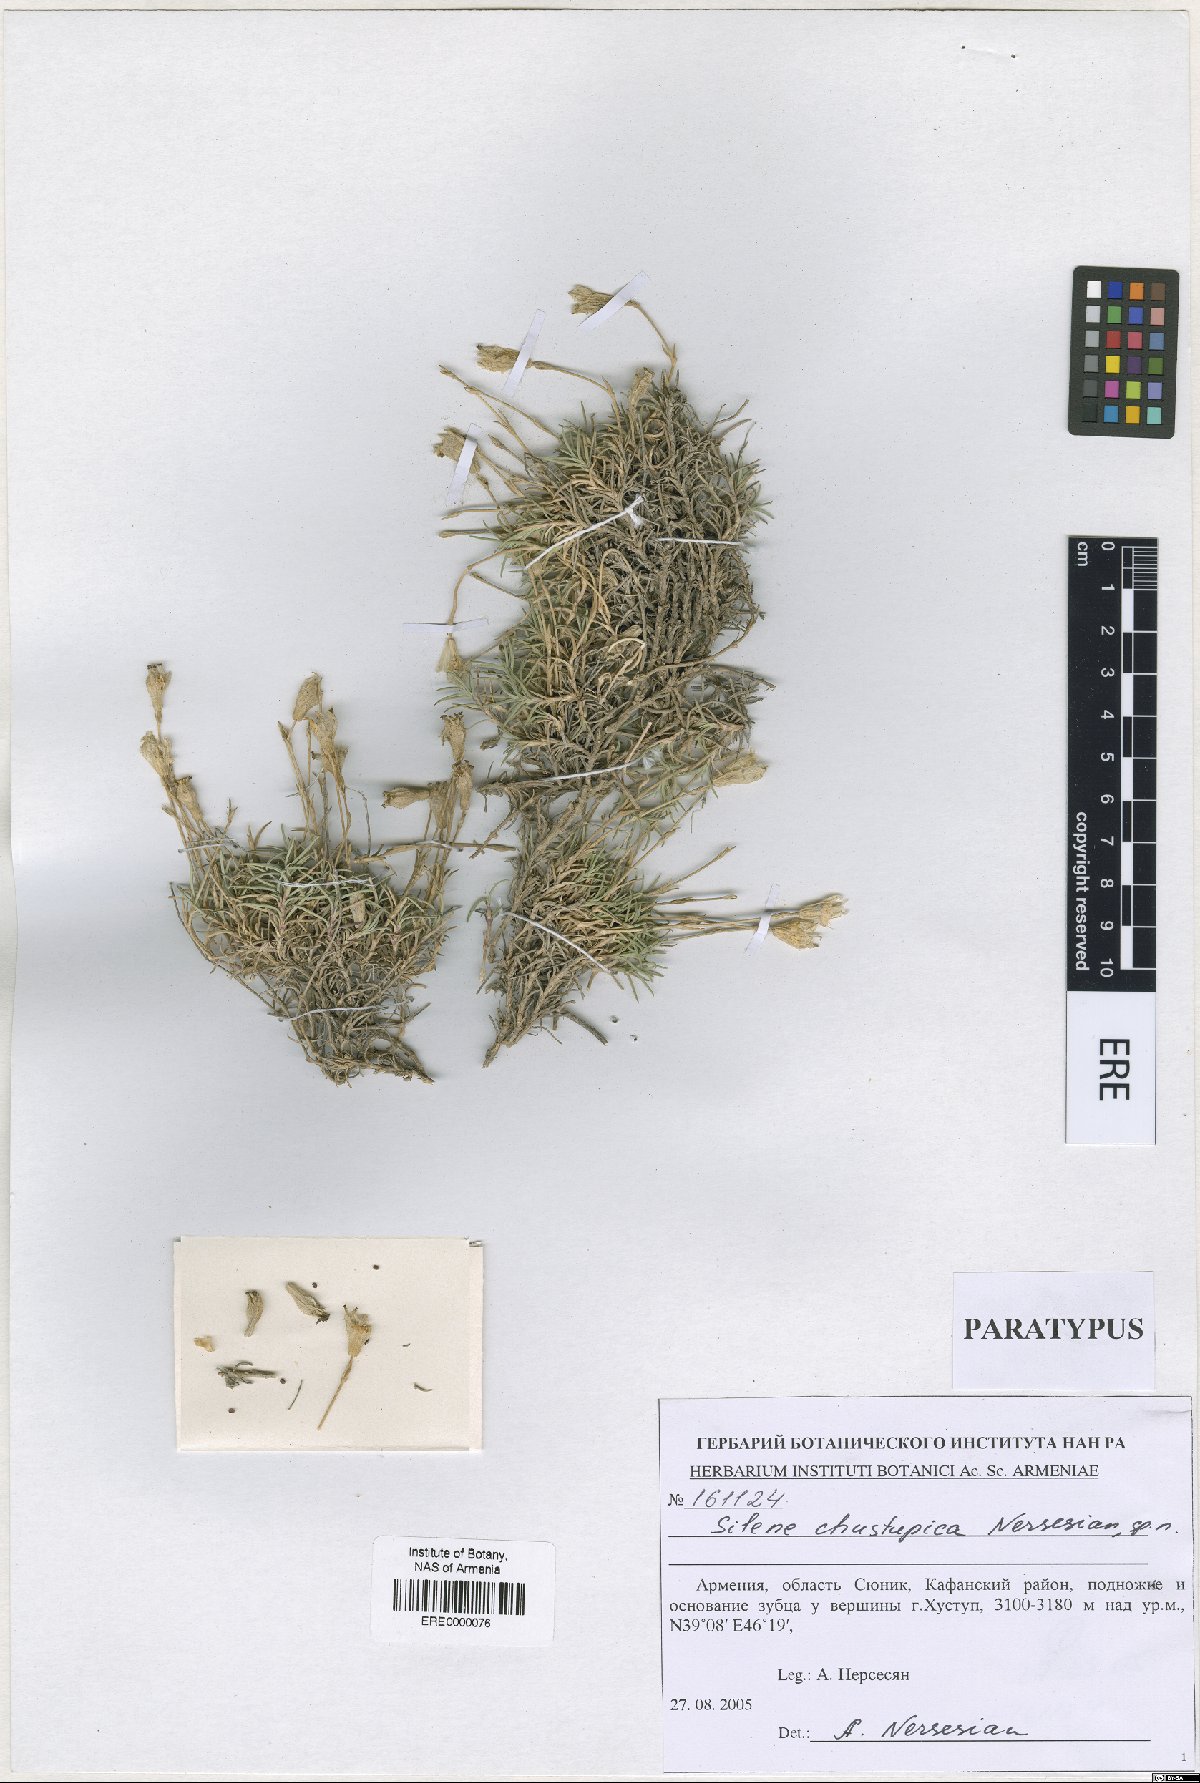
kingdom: Plantae
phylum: Tracheophyta
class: Magnoliopsida
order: Caryophyllales
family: Caryophyllaceae
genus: Silene
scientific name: Silene pungens
